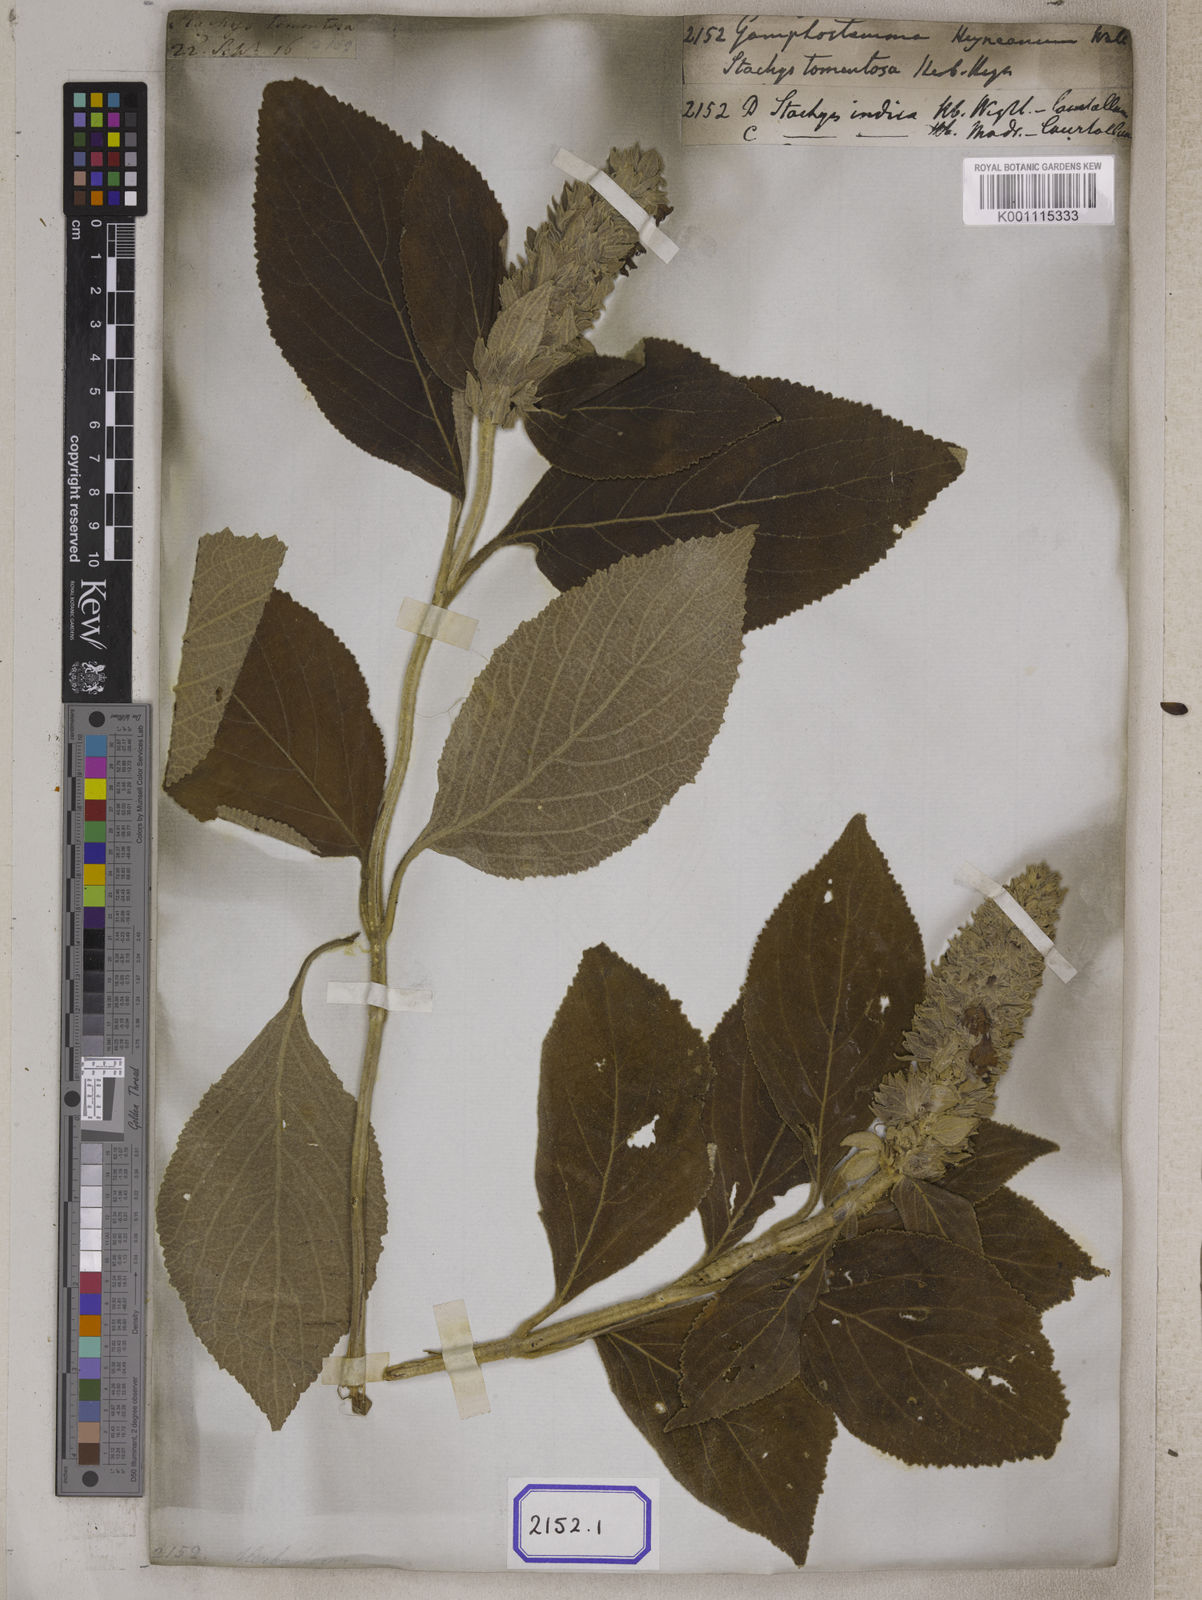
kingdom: Plantae
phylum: Tracheophyta
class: Magnoliopsida
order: Lamiales
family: Lamiaceae
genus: Gomphostemma
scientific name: Gomphostemma
